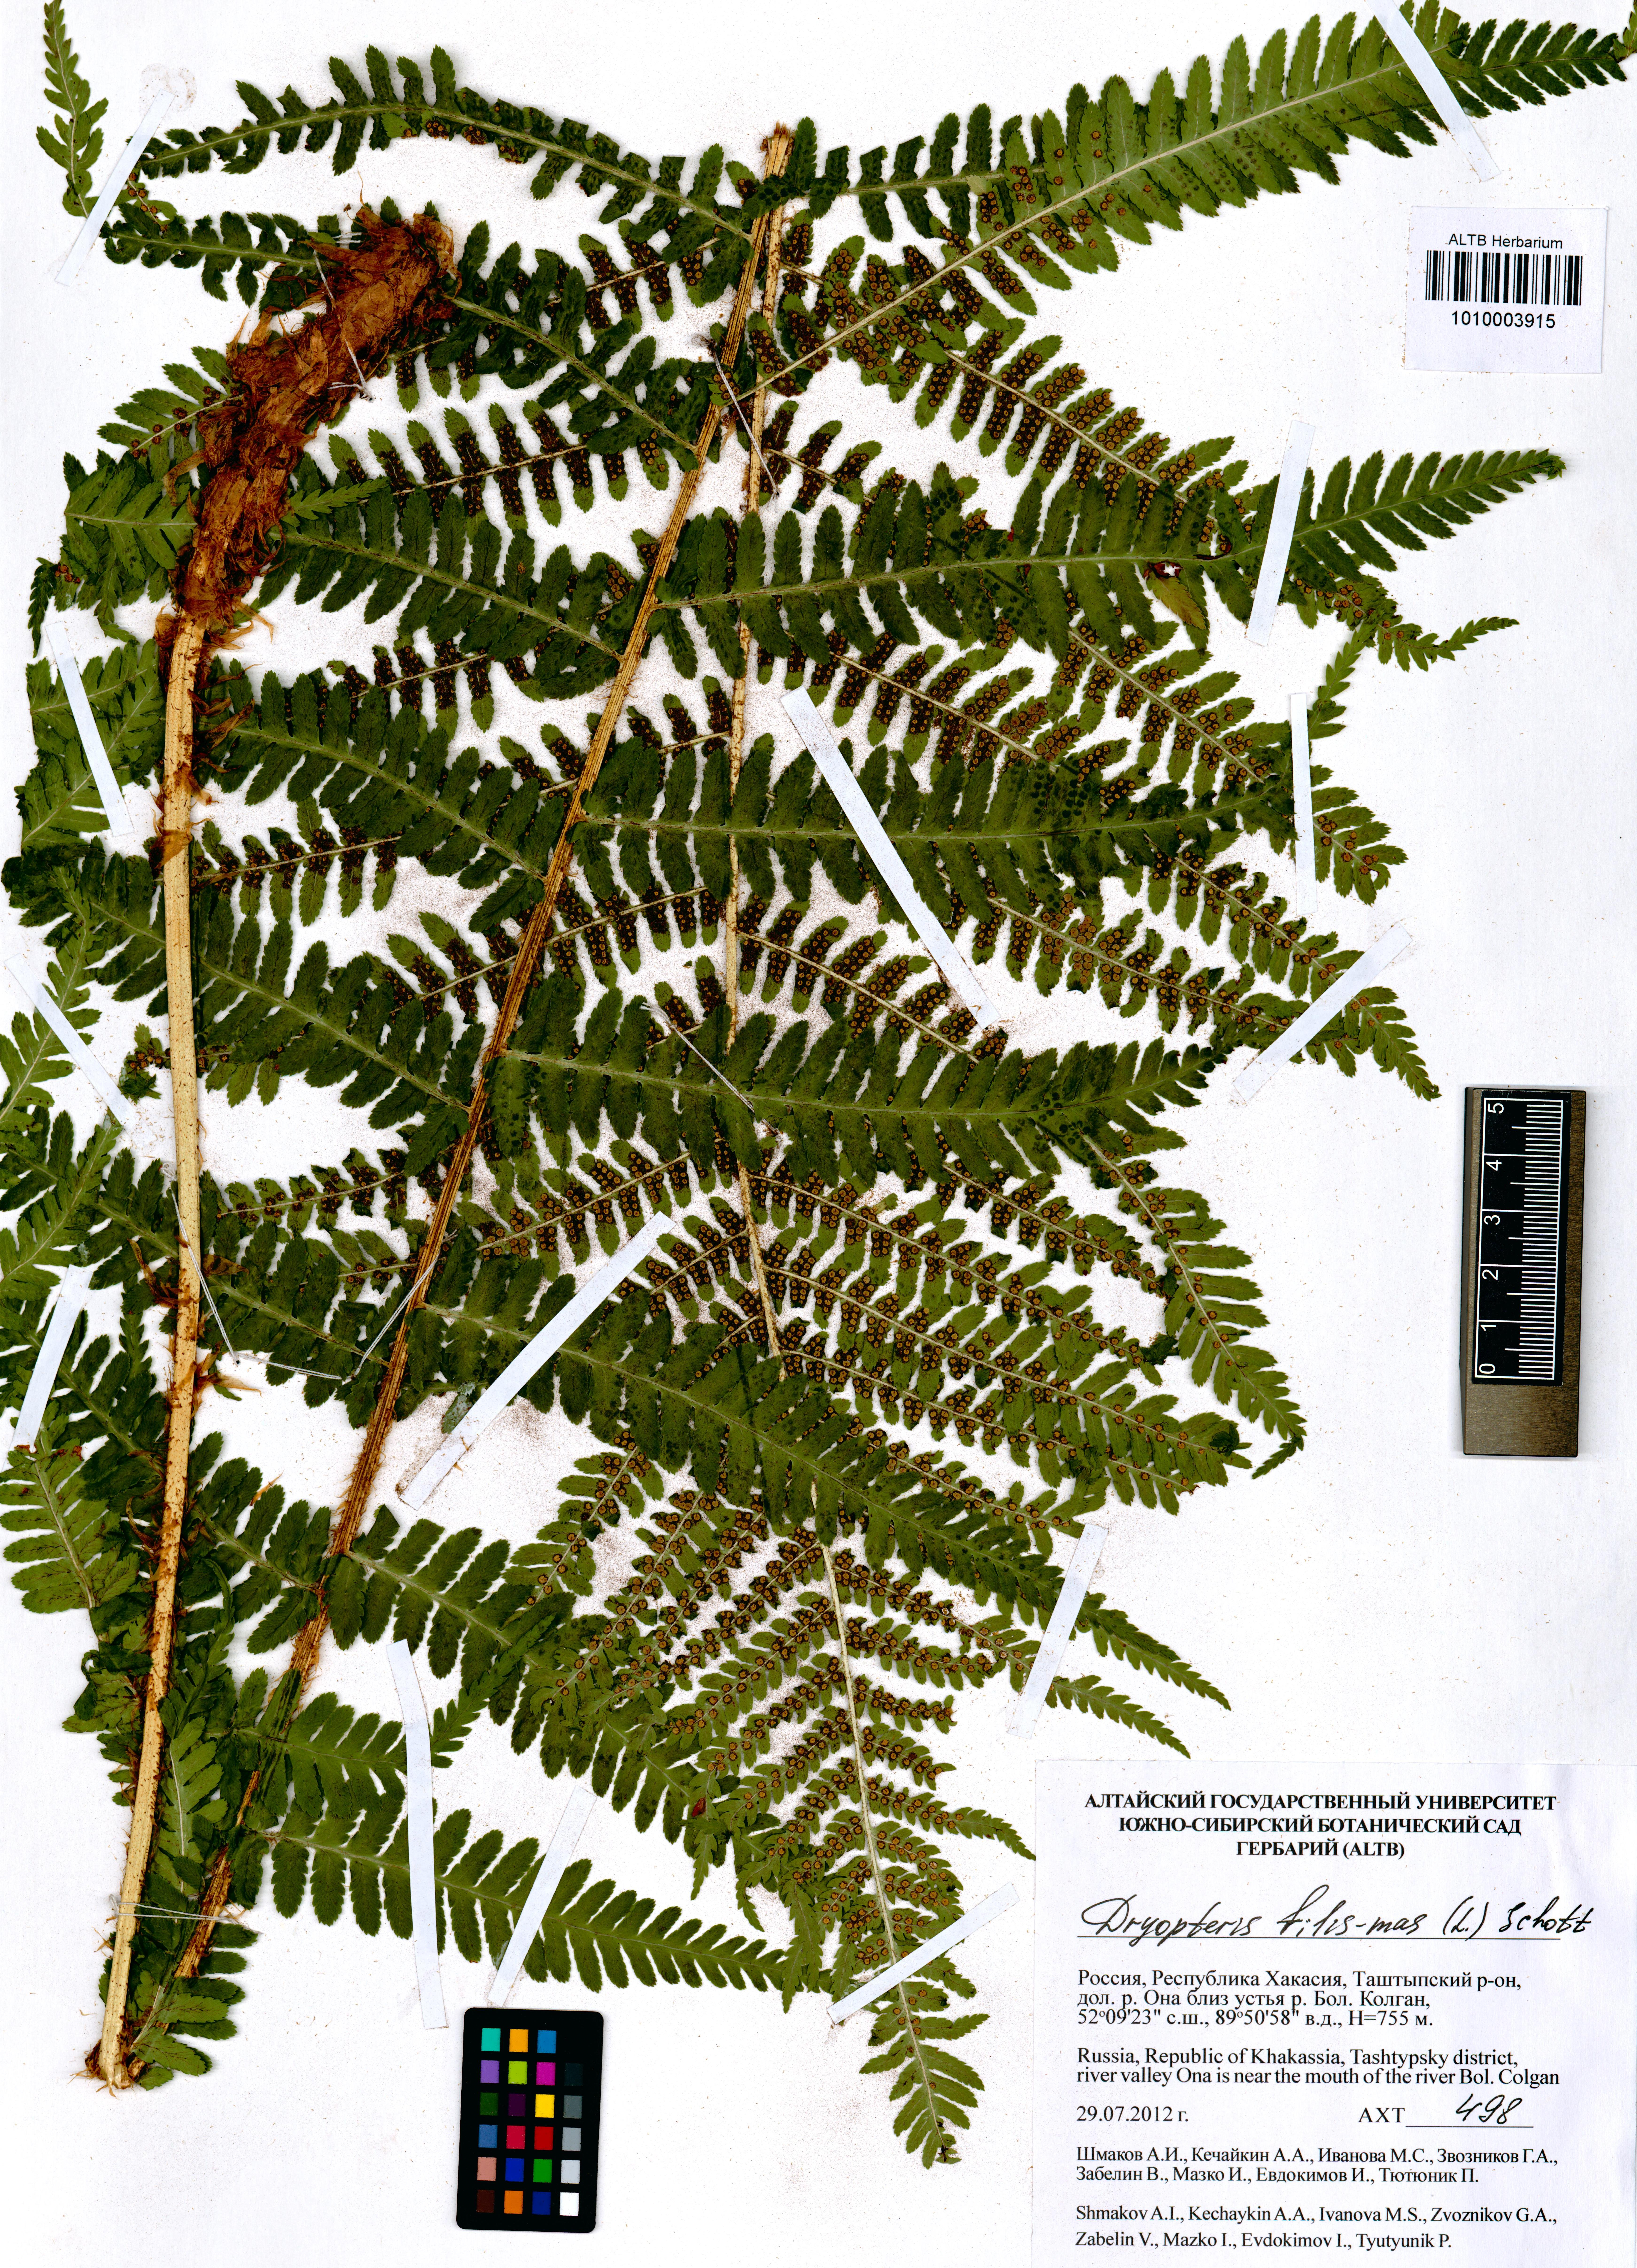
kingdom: Plantae
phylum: Tracheophyta
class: Polypodiopsida
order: Polypodiales
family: Dryopteridaceae
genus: Dryopteris
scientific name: Dryopteris filix-mas
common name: Male fern
